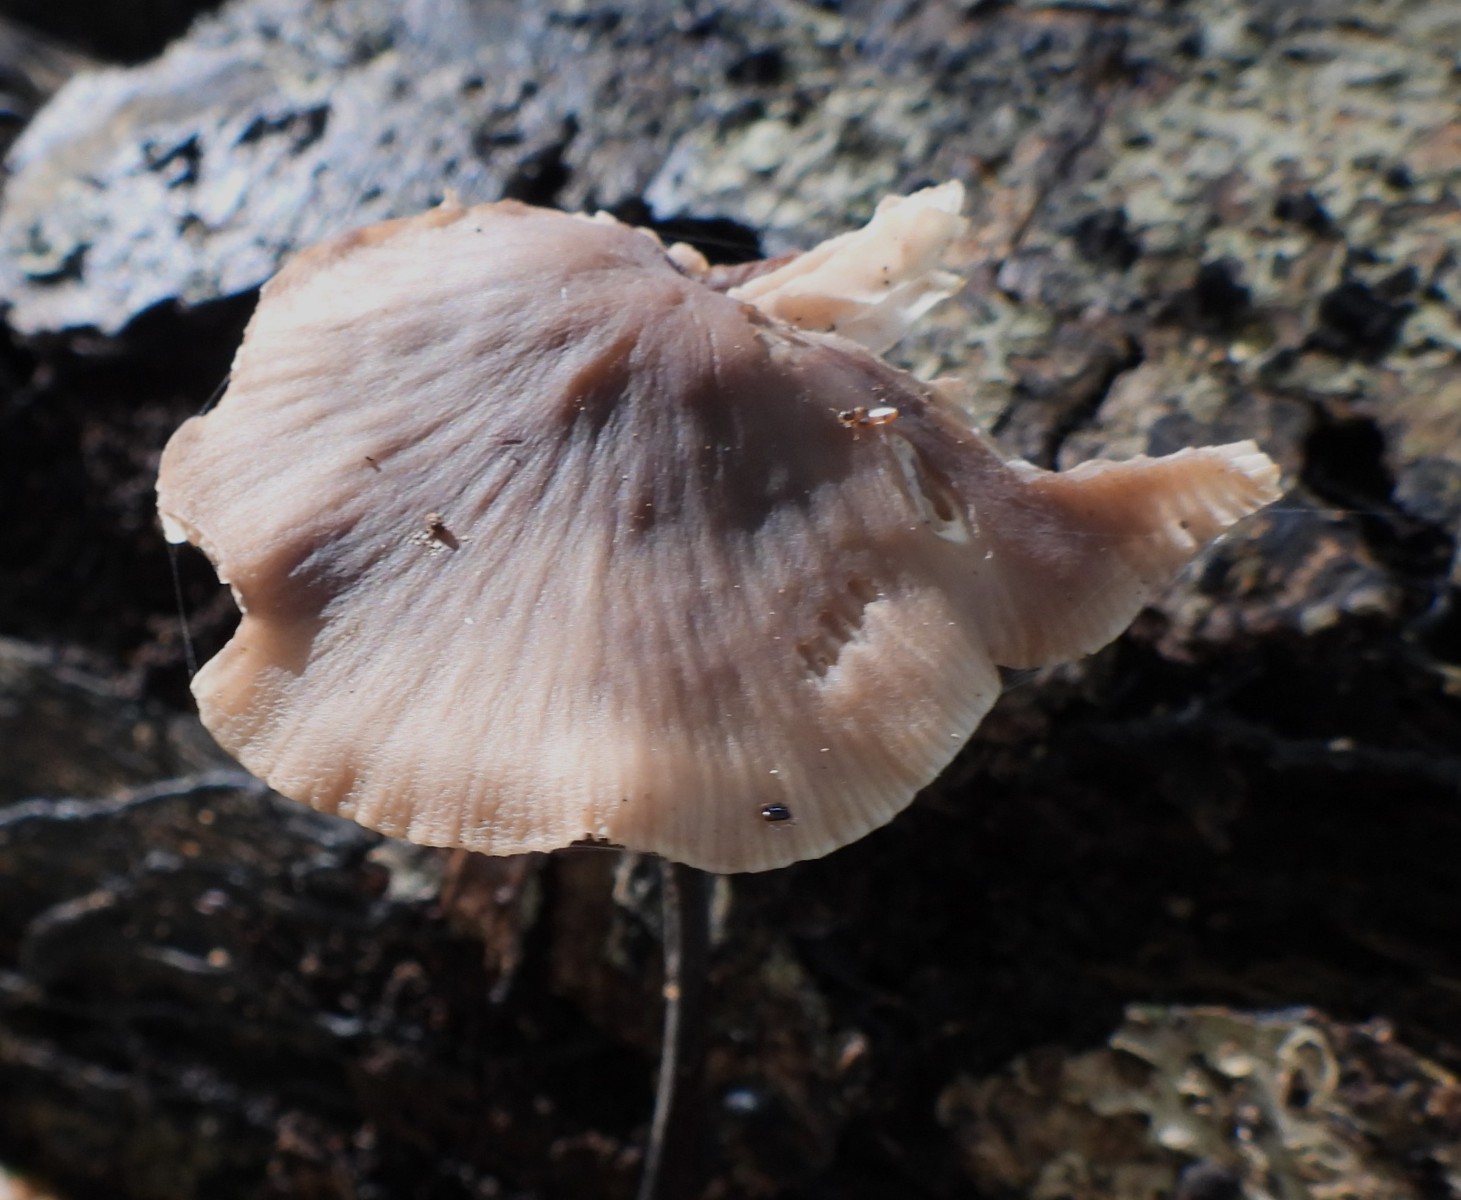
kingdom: Fungi
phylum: Basidiomycota
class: Agaricomycetes
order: Agaricales
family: Omphalotaceae
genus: Mycetinis
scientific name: Mycetinis alliaceus
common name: stor løghat
